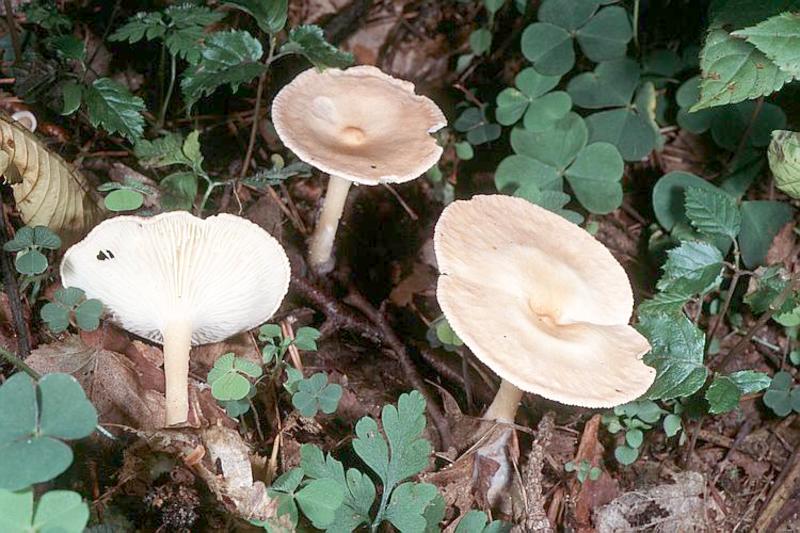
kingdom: Fungi
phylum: Basidiomycota
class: Agaricomycetes
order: Agaricales
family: Tricholomataceae
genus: Infundibulicybe
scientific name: Infundibulicybe gibba
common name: Common funnel
